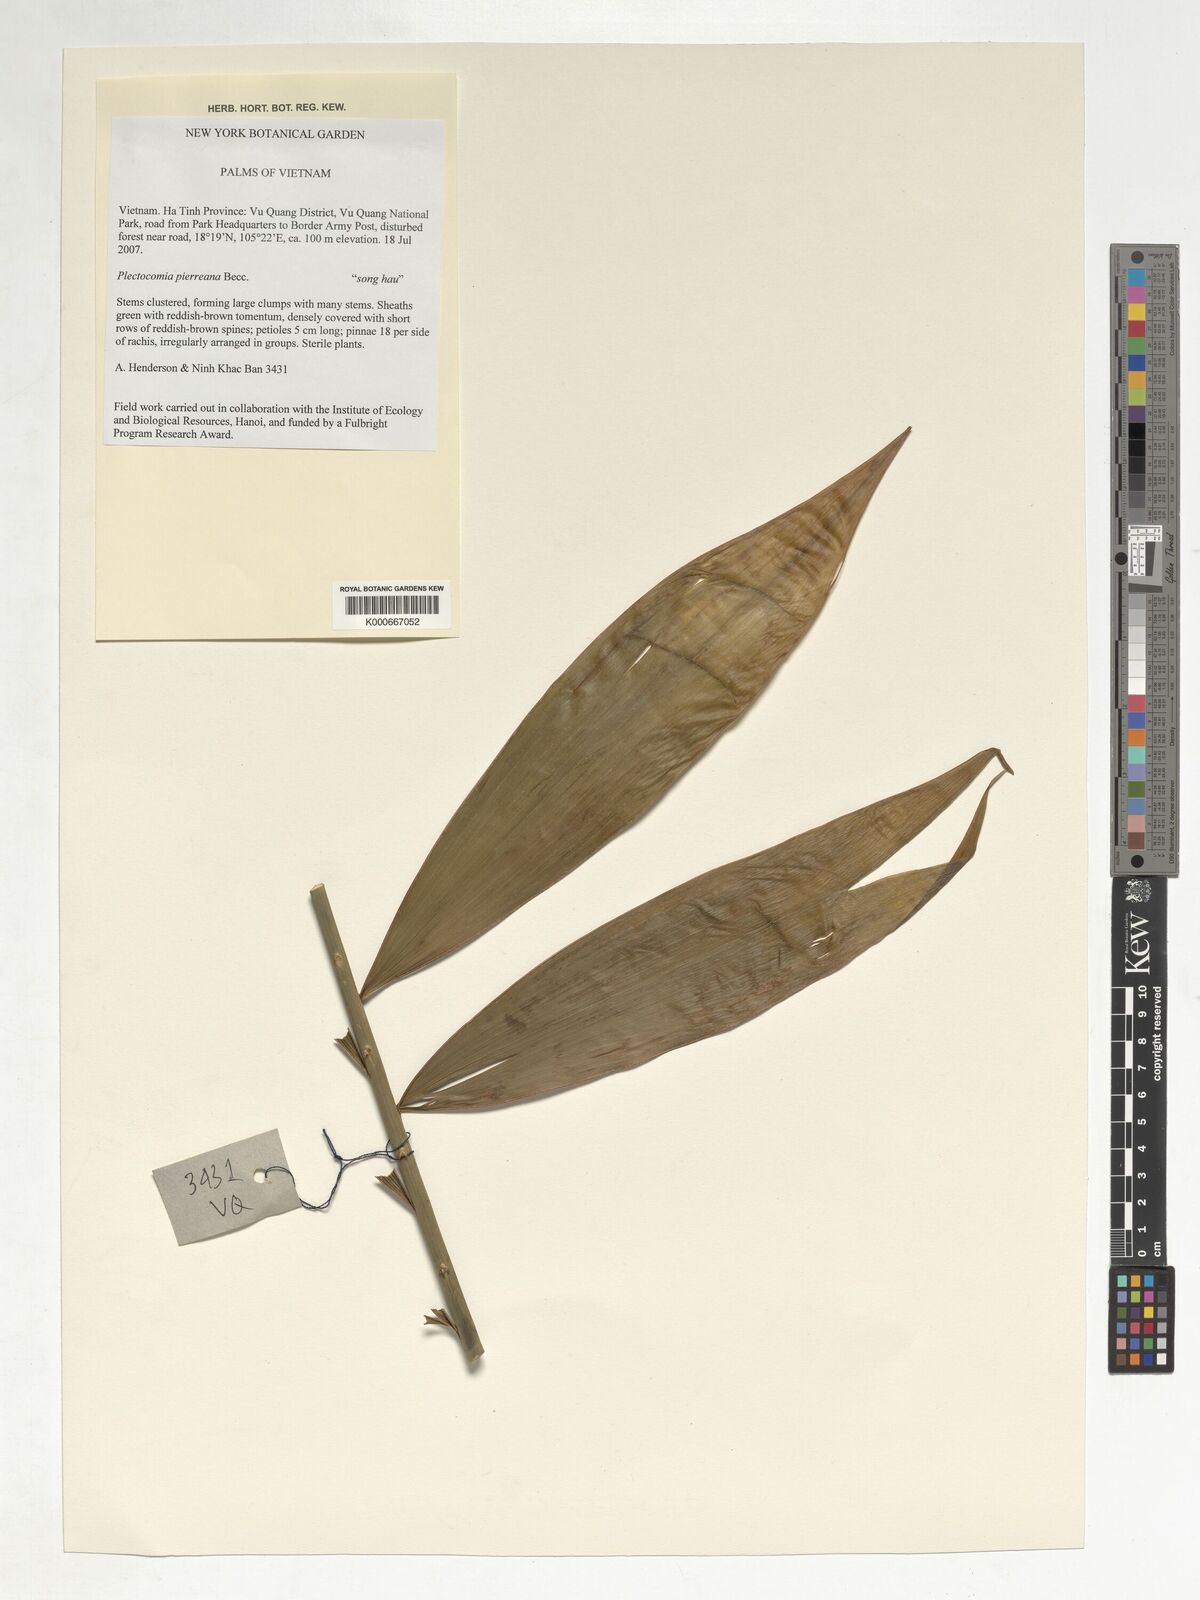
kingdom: Plantae
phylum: Tracheophyta
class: Liliopsida
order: Arecales
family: Arecaceae
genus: Plectocomia
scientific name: Plectocomia pierreana
